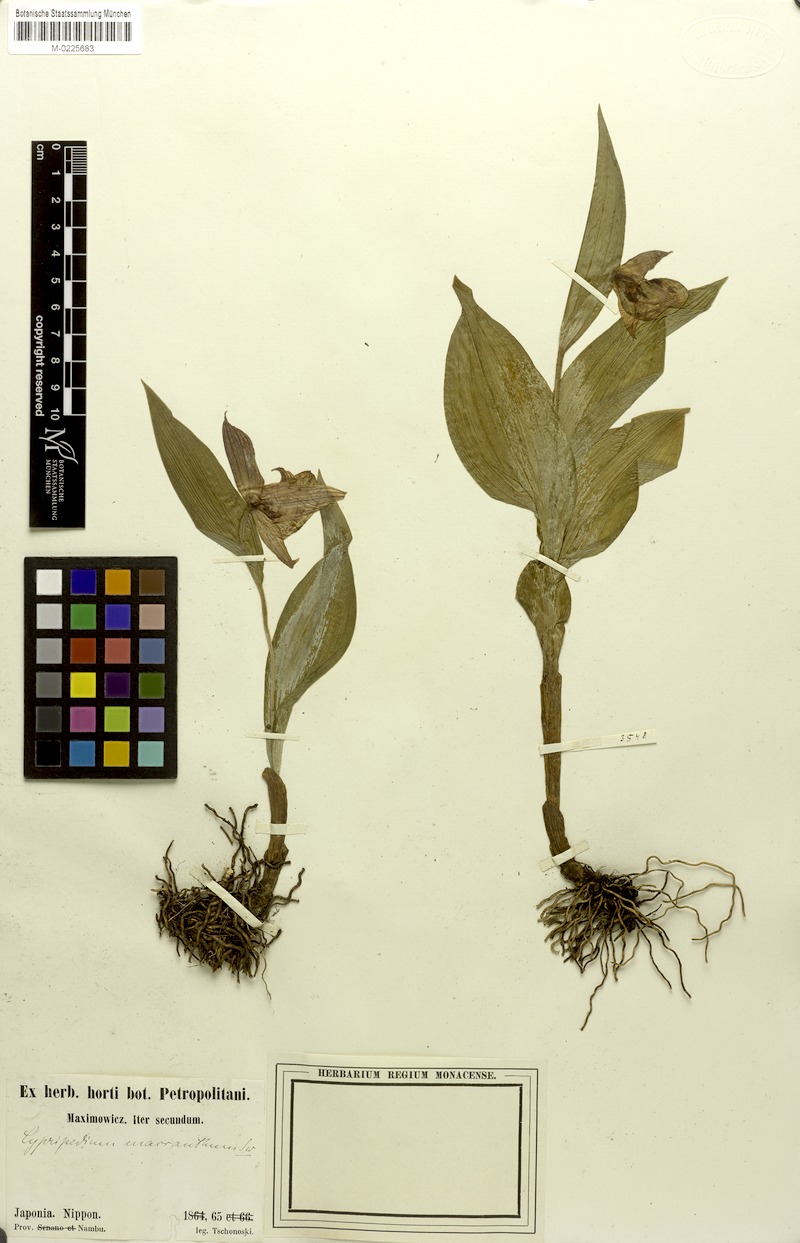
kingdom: Plantae
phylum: Tracheophyta
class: Liliopsida
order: Asparagales
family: Orchidaceae
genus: Cypripedium
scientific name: Cypripedium macranthon
